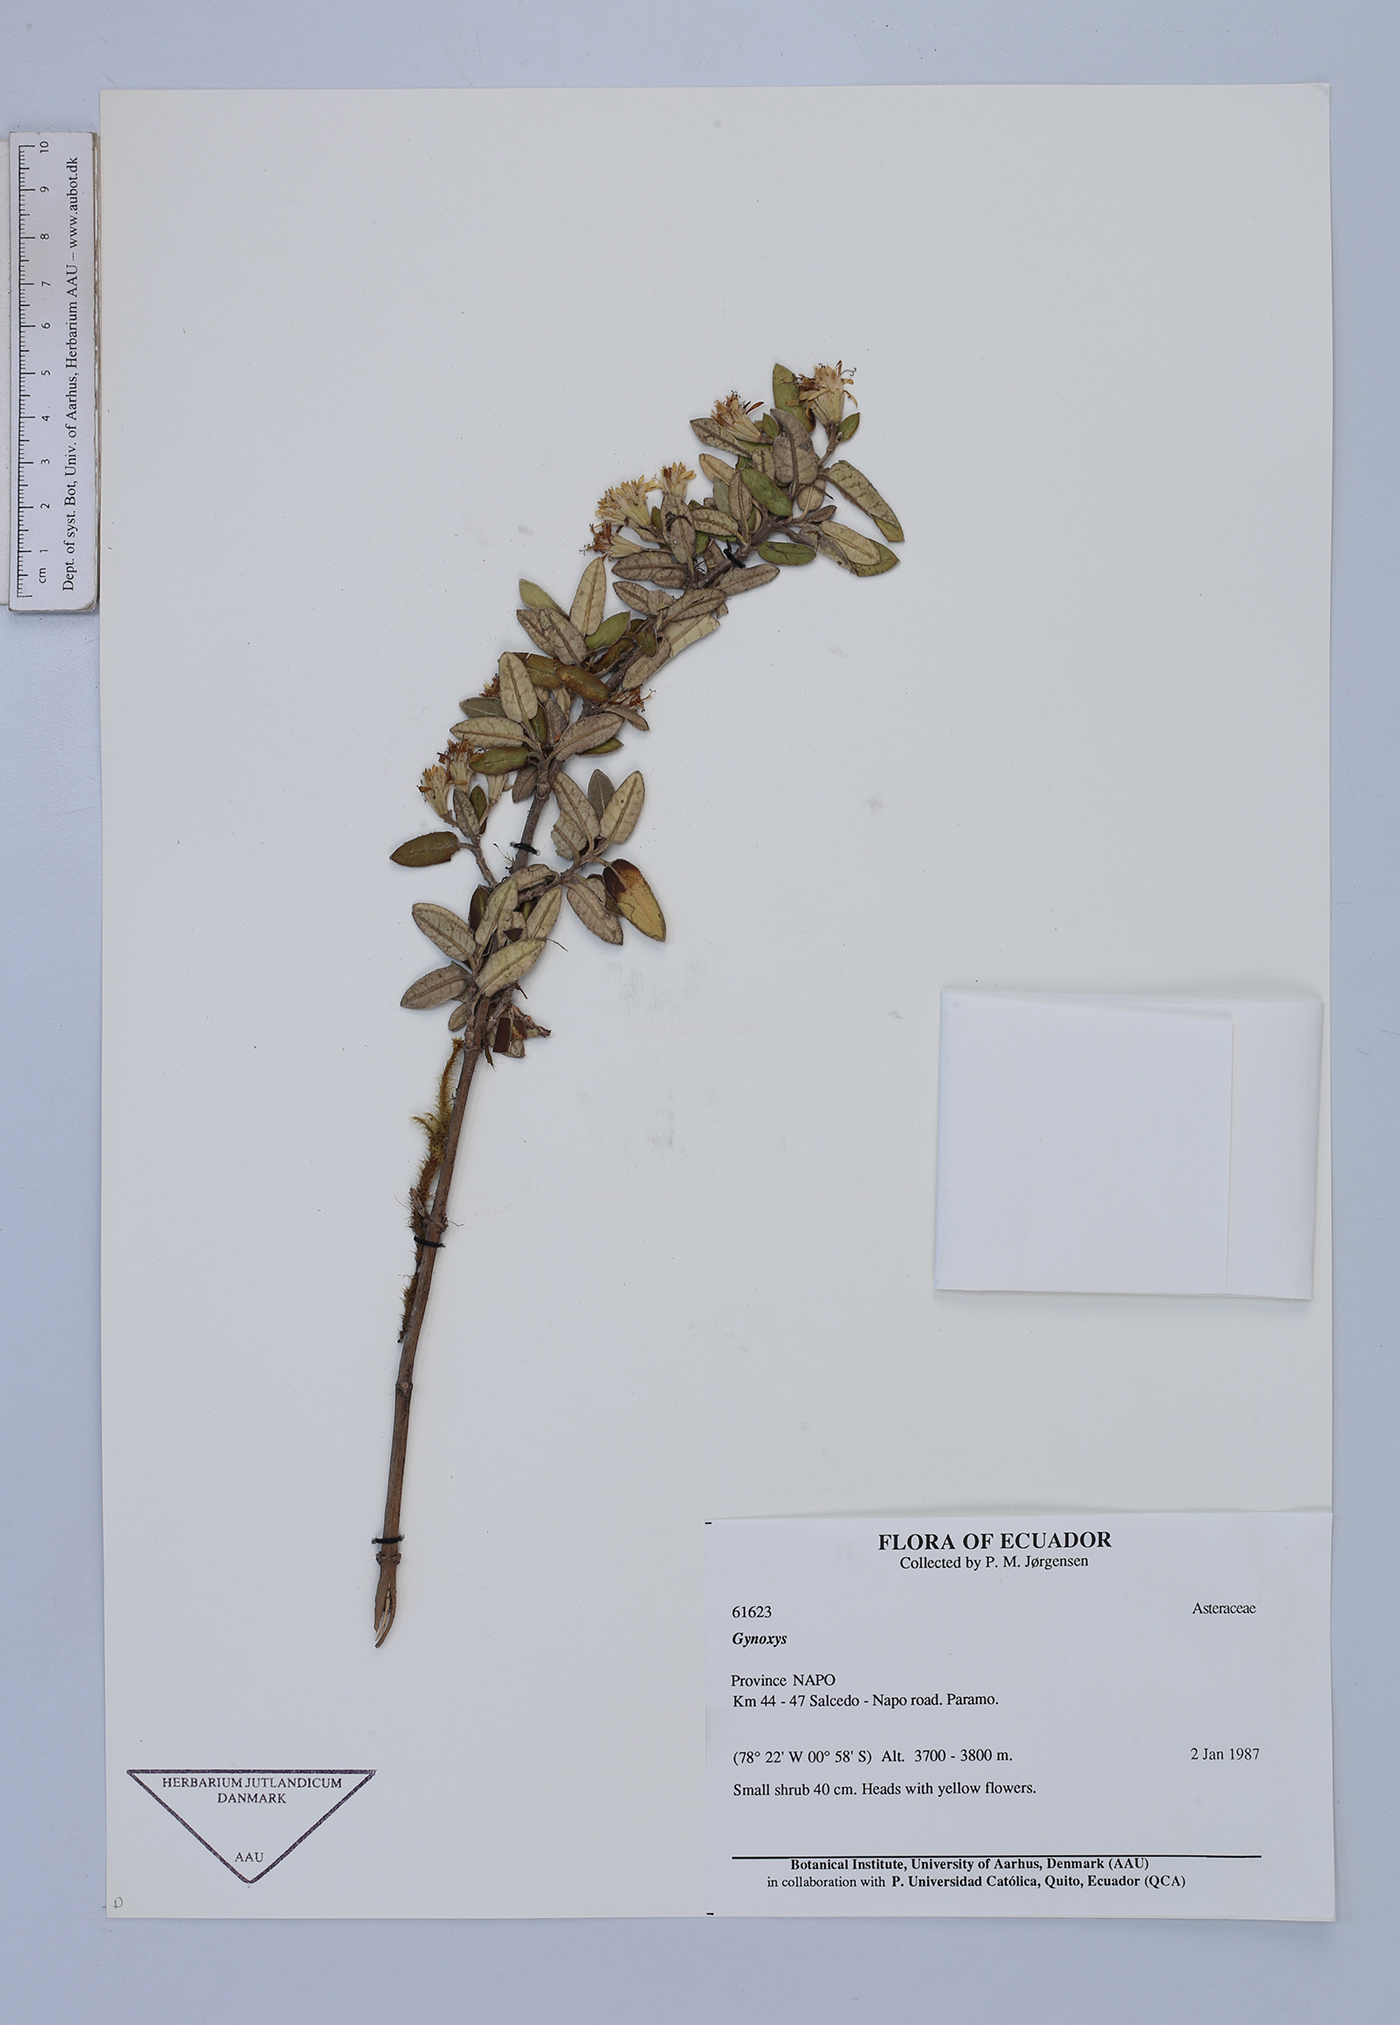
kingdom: Plantae
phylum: Tracheophyta
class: Magnoliopsida
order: Asterales
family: Asteraceae
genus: Gynoxys
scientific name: Gynoxys sodiroi
